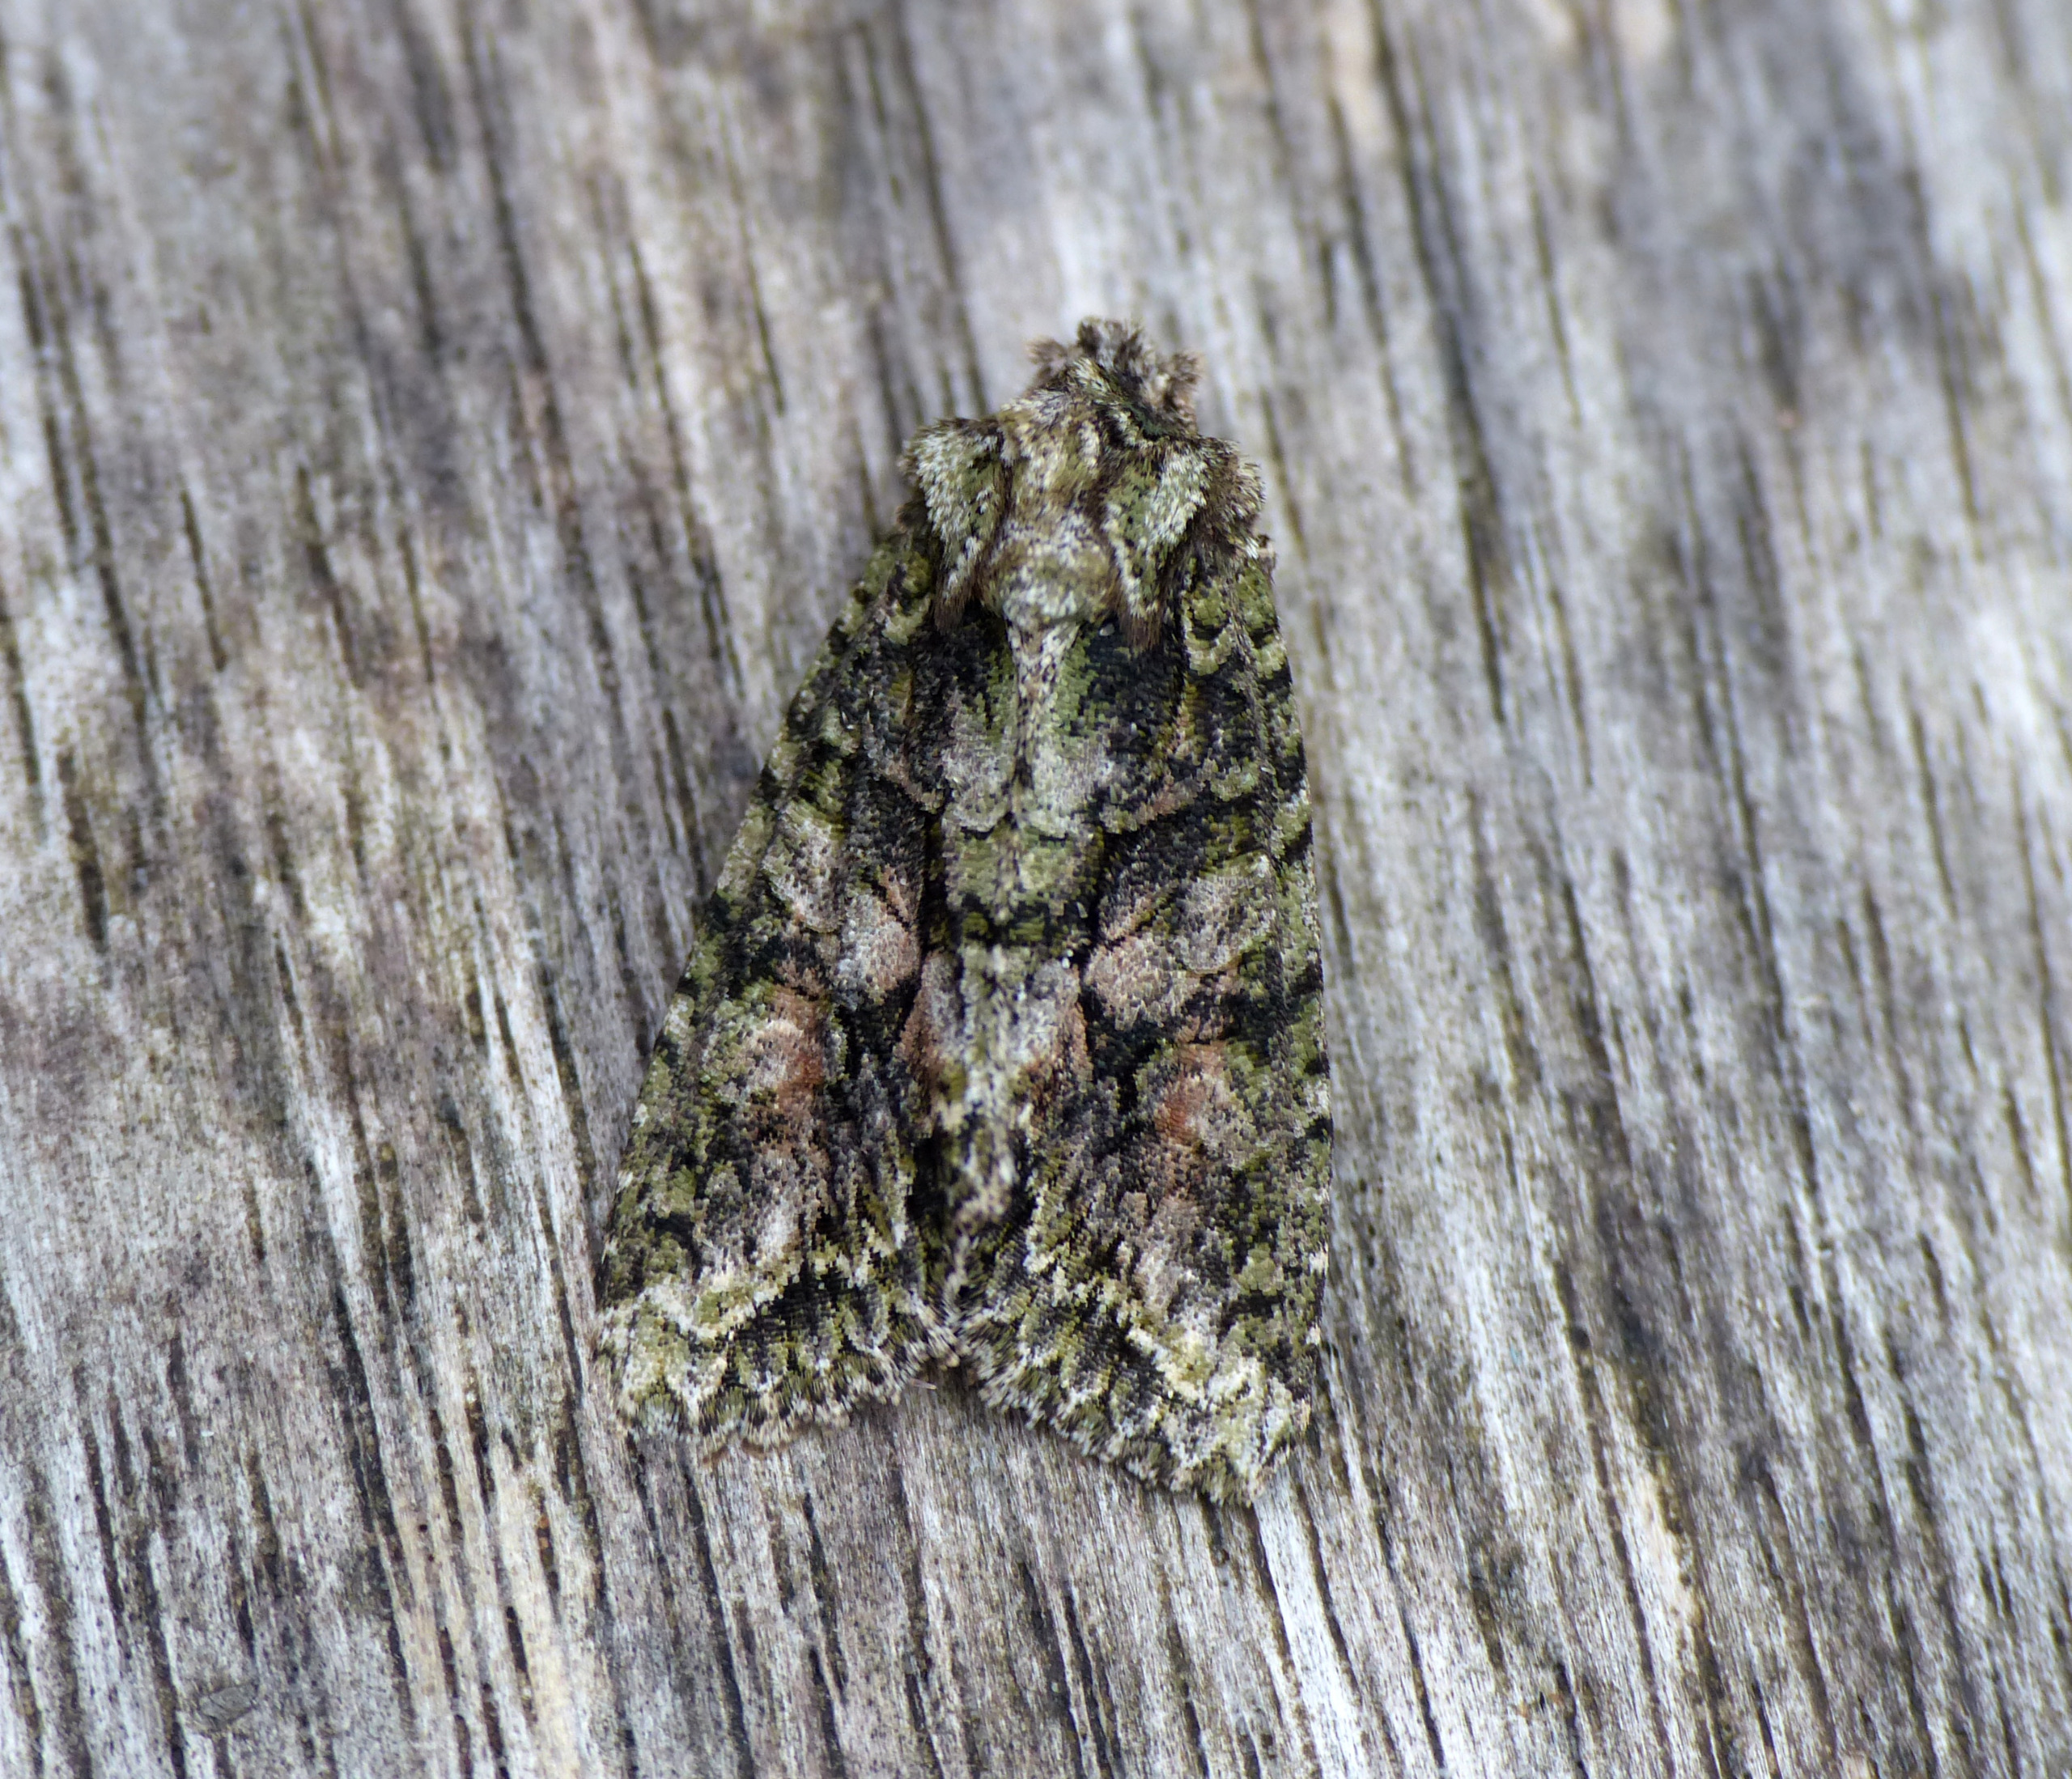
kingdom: Animalia
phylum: Arthropoda
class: Insecta
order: Lepidoptera
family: Noctuidae
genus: Dryobotodes
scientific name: Dryobotodes eremita
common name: Eremitugle
